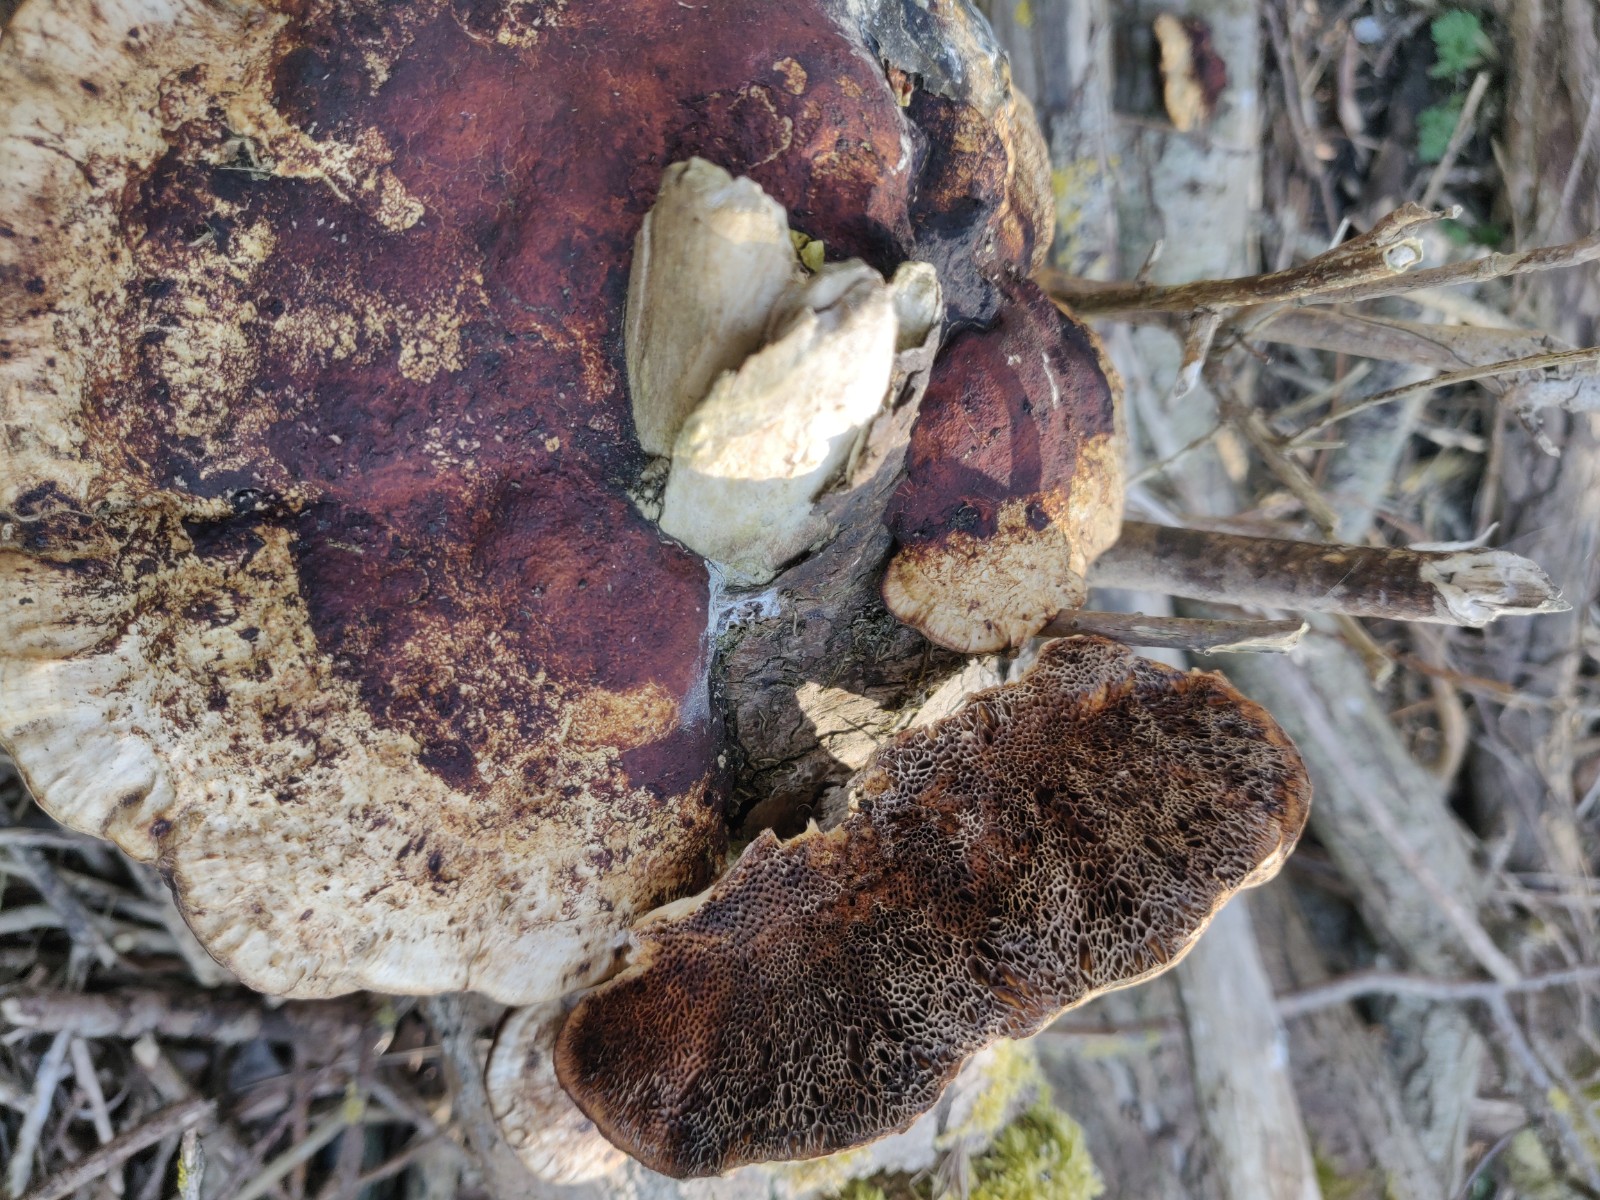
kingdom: Fungi
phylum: Basidiomycota
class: Agaricomycetes
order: Polyporales
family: Polyporaceae
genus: Daedaleopsis
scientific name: Daedaleopsis confragosa
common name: rødmende læderporesvamp
